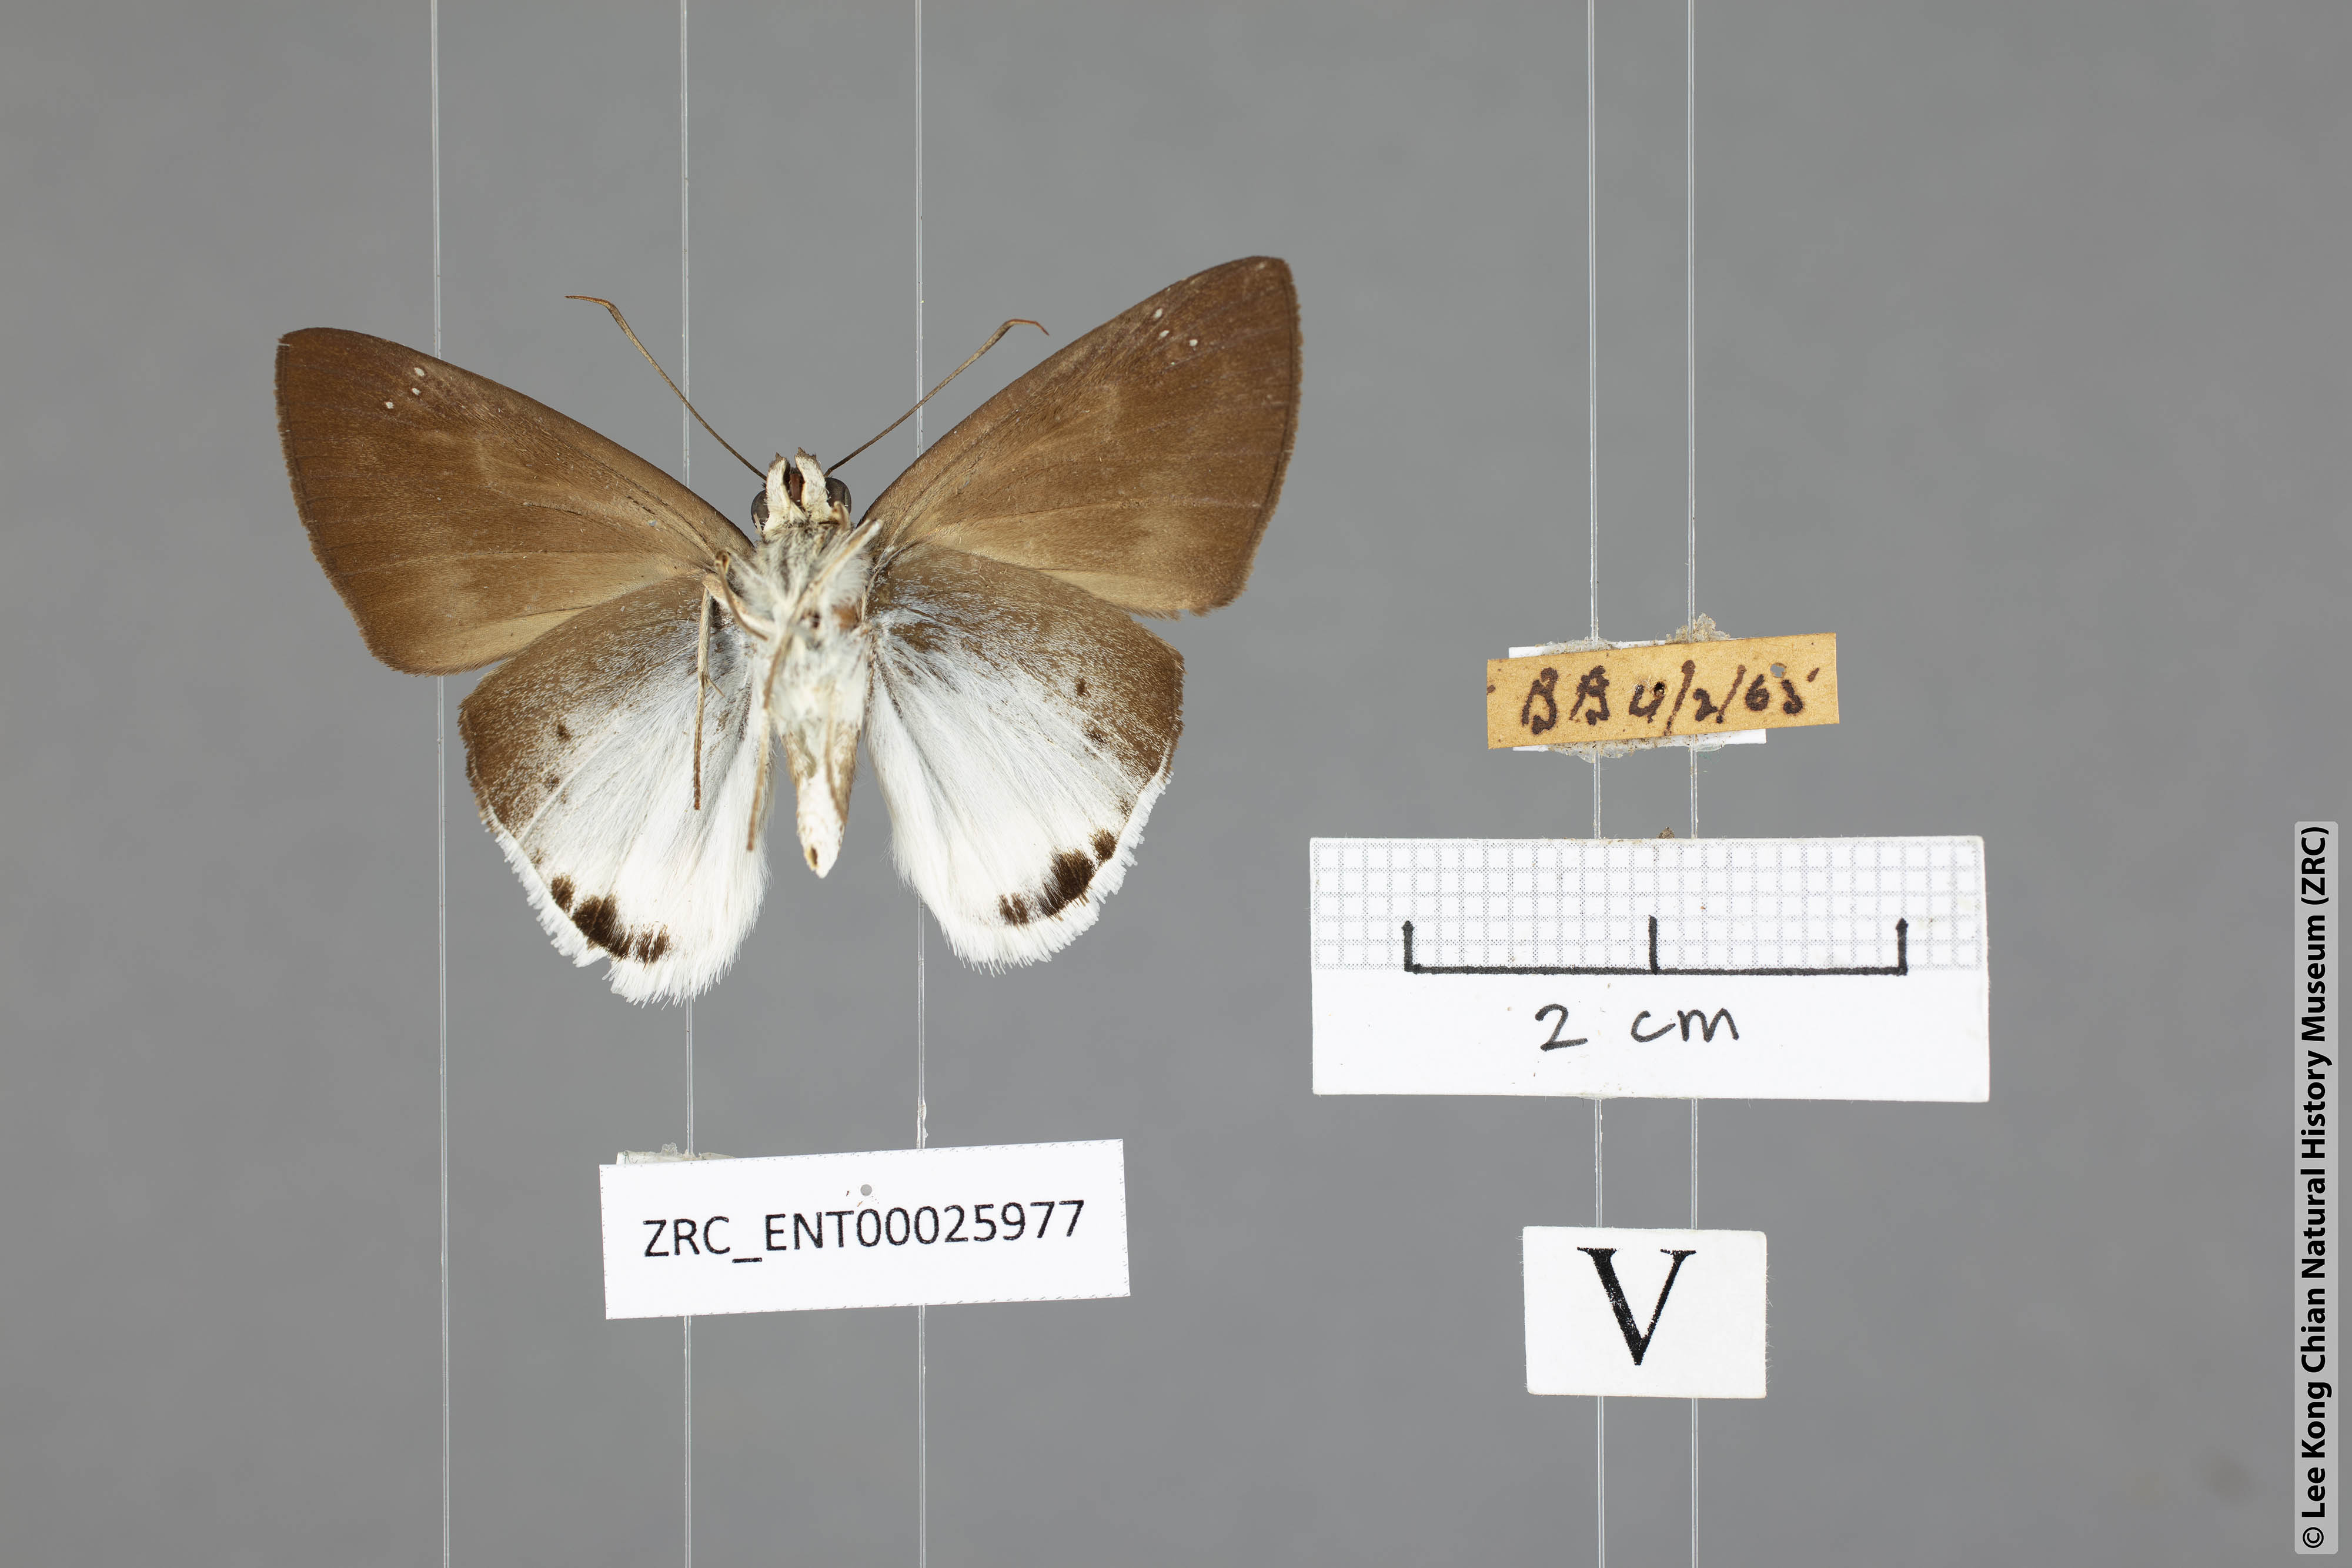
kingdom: Animalia
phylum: Arthropoda
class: Insecta
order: Lepidoptera
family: Hesperiidae
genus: Tagiades
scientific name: Tagiades gana
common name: Suffused snow flat
